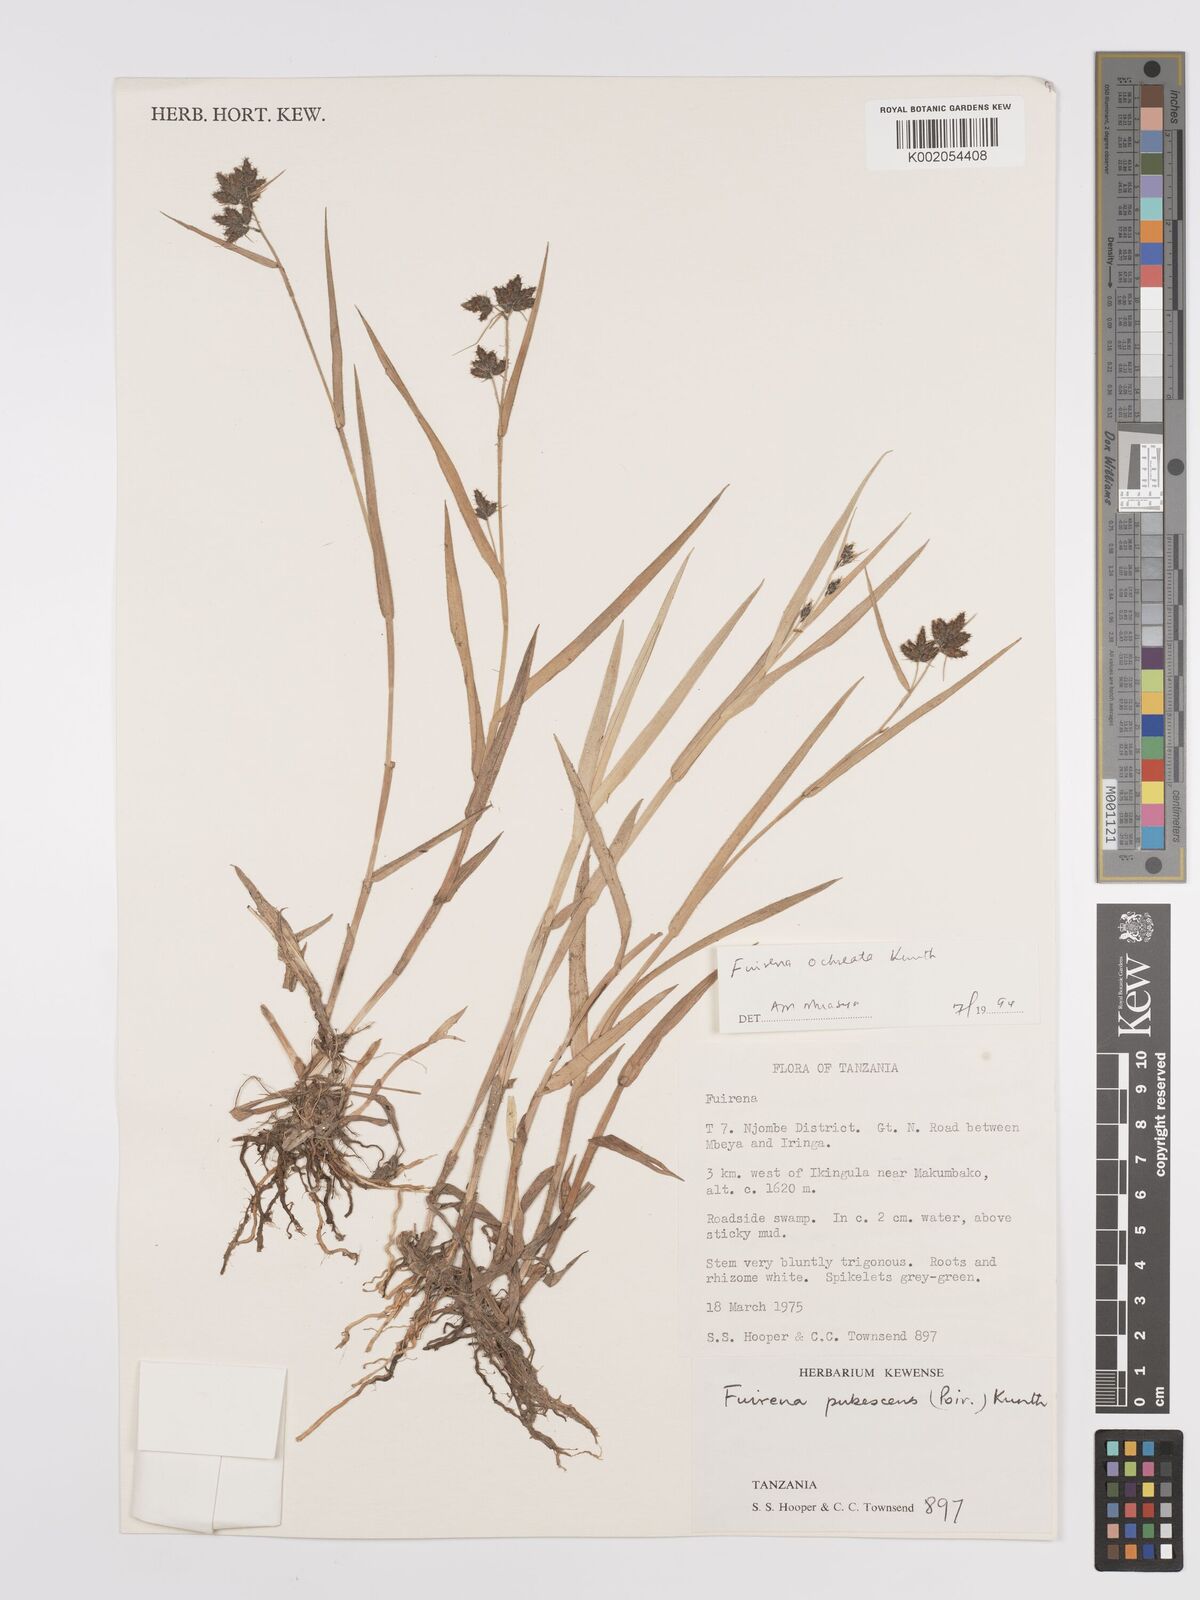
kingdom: Plantae
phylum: Tracheophyta
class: Liliopsida
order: Poales
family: Cyperaceae
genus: Fuirena
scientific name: Fuirena ochreata
